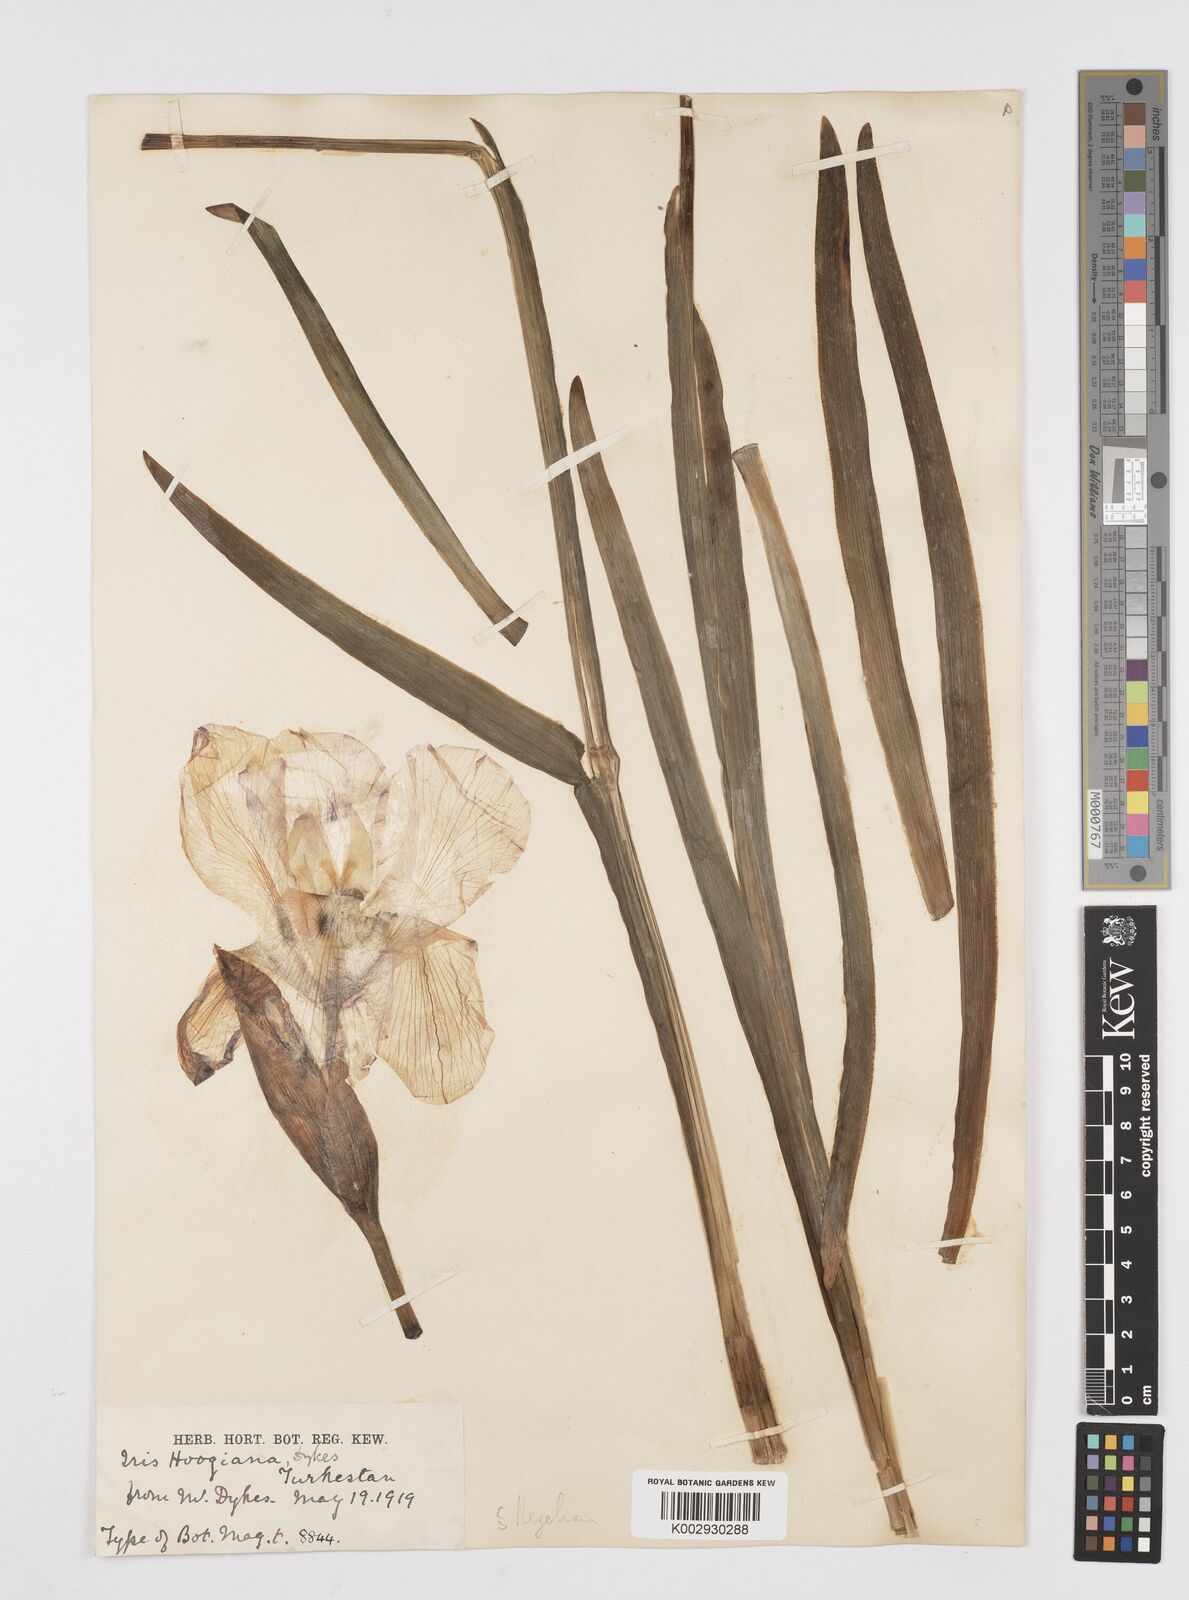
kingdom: Plantae
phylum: Tracheophyta
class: Liliopsida
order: Asparagales
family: Iridaceae
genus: Iris
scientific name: Iris hoogiana
